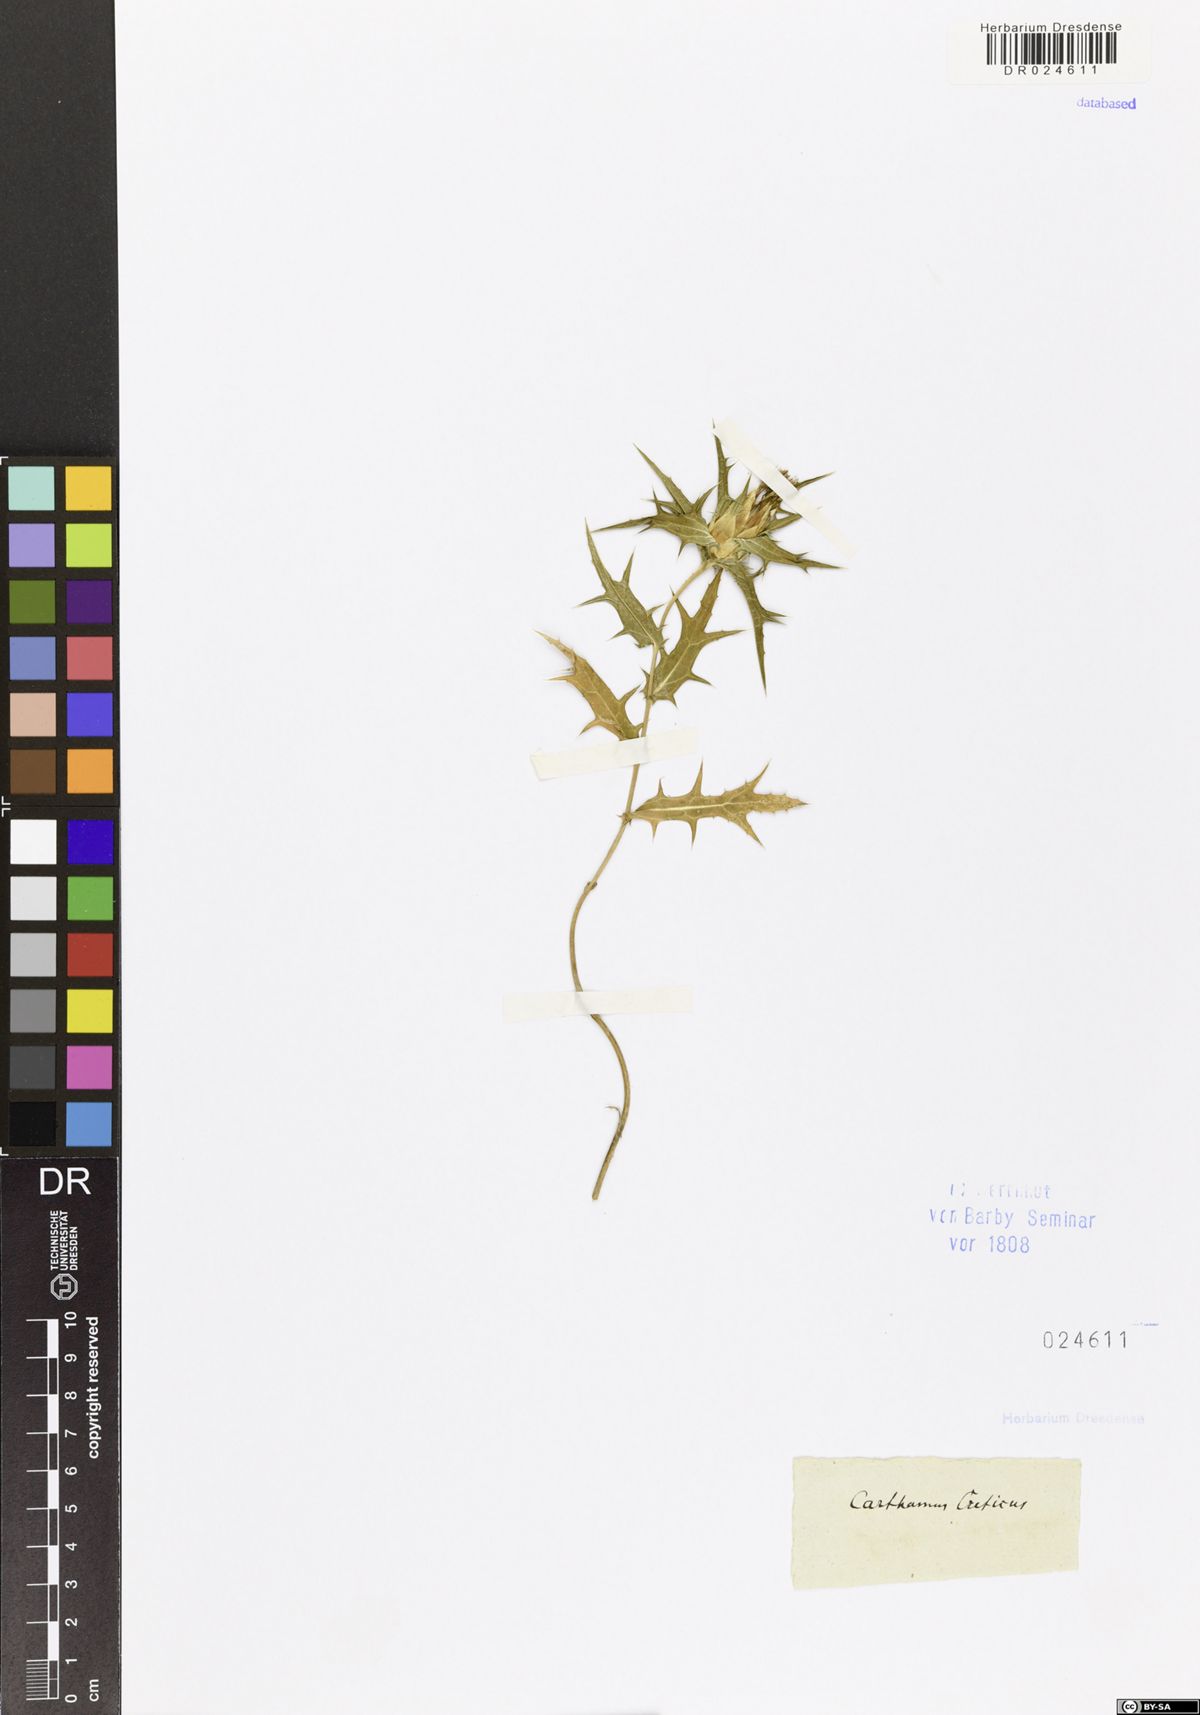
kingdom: Plantae
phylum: Tracheophyta
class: Magnoliopsida
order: Asterales
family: Asteraceae
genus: Carthamus
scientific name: Carthamus creticus
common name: Smooth distaff thistle
